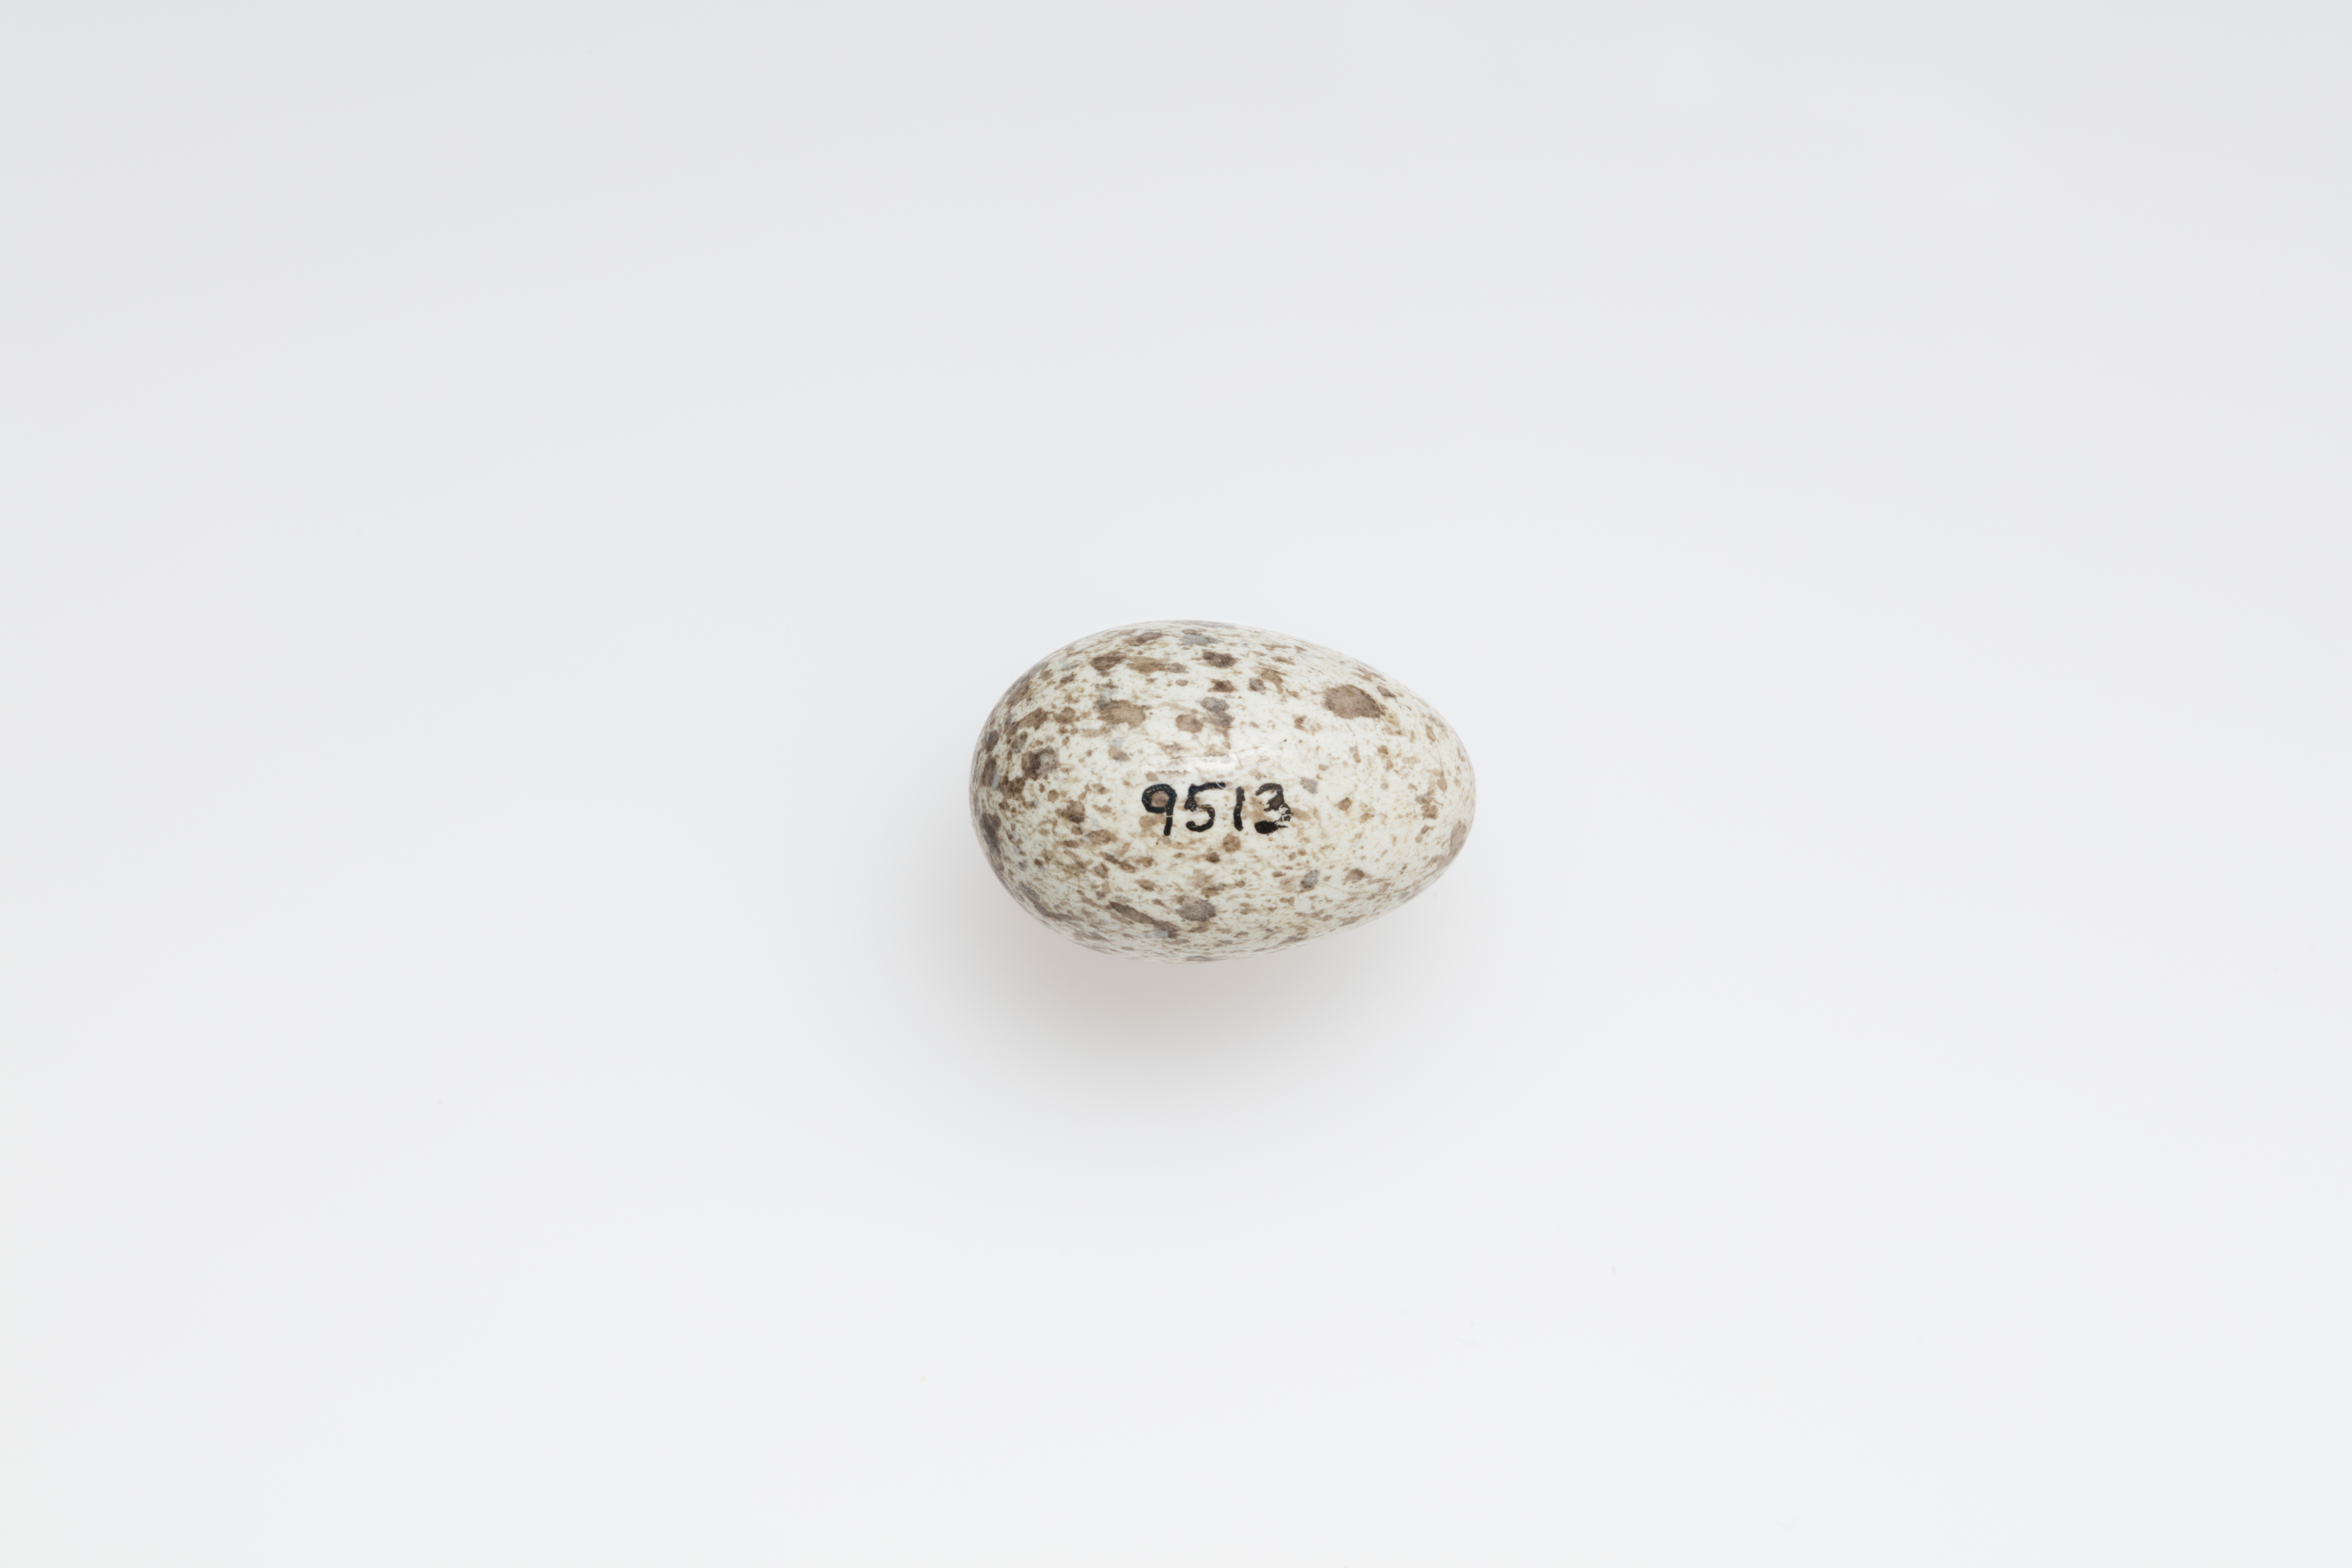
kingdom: Animalia
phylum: Chordata
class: Aves
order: Passeriformes
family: Passeridae
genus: Passer
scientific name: Passer domesticus
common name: House sparrow
